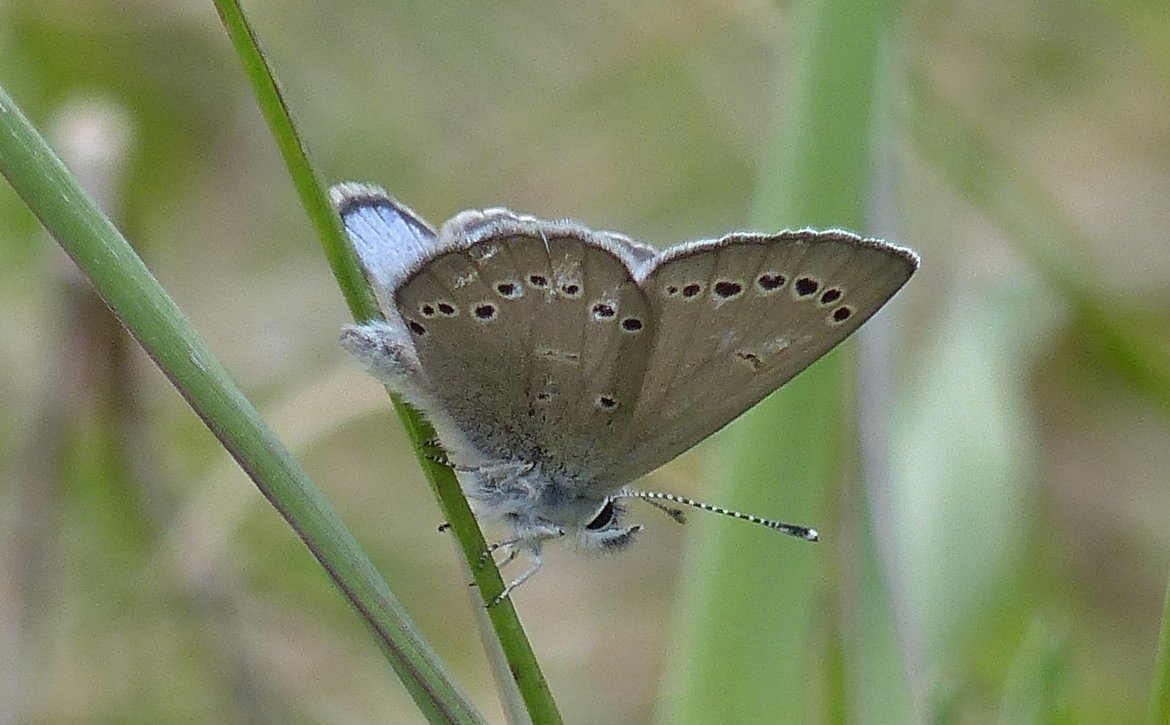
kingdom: Animalia
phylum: Arthropoda
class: Insecta
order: Lepidoptera
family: Lycaenidae
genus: Glaucopsyche
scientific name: Glaucopsyche lygdamus
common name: Silvery Blue
